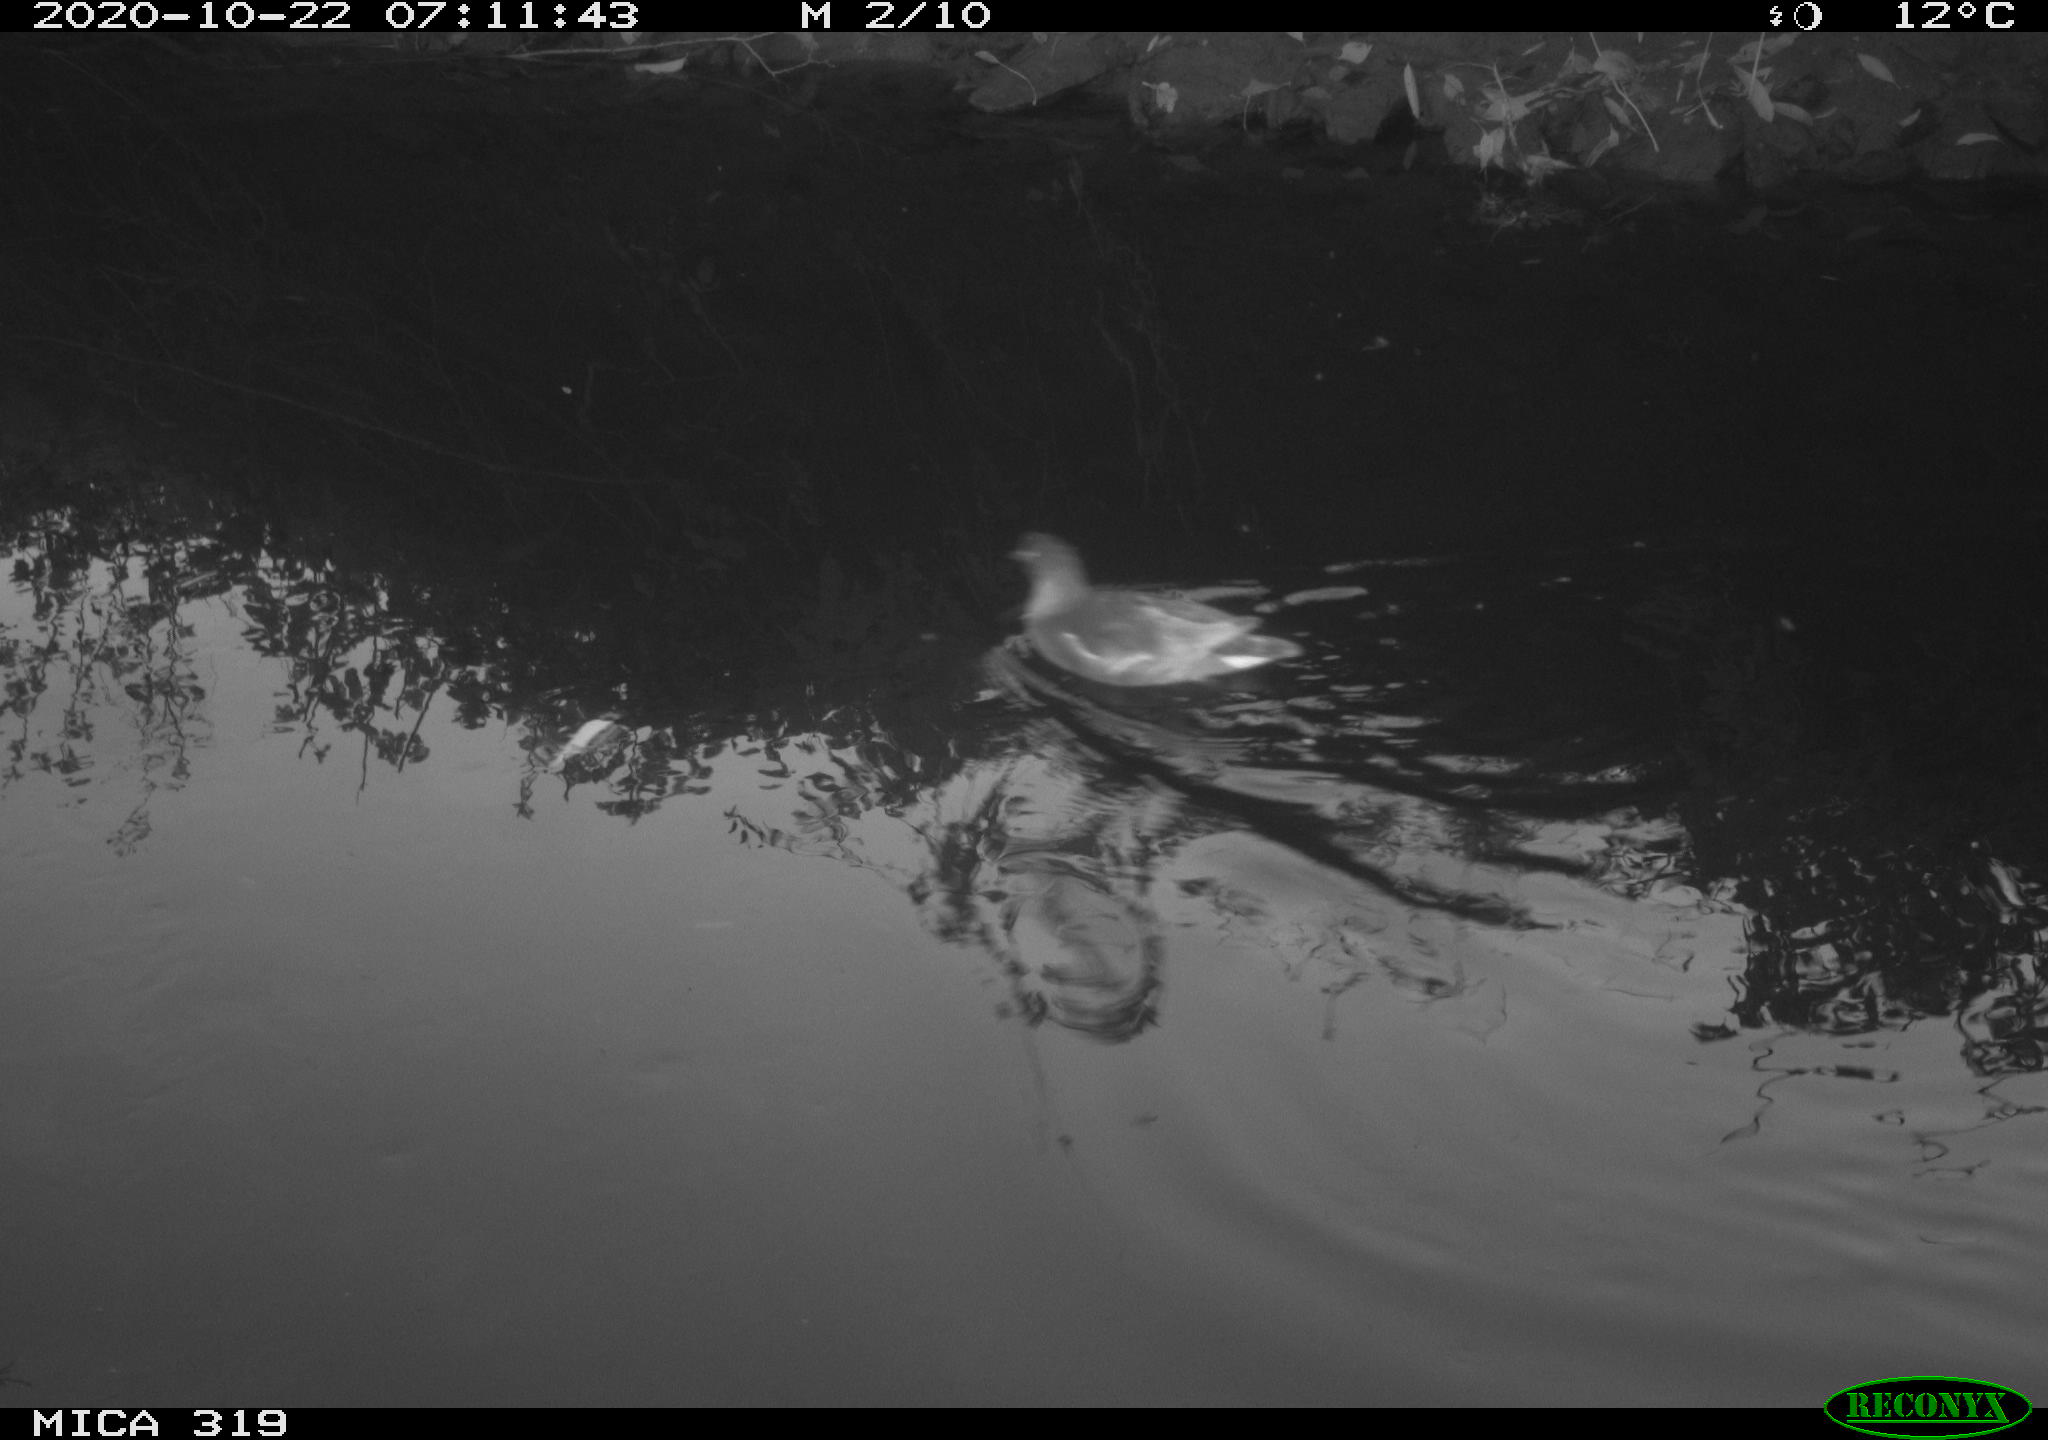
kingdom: Animalia
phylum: Chordata
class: Aves
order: Gruiformes
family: Rallidae
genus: Gallinula
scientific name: Gallinula chloropus
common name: Common moorhen
